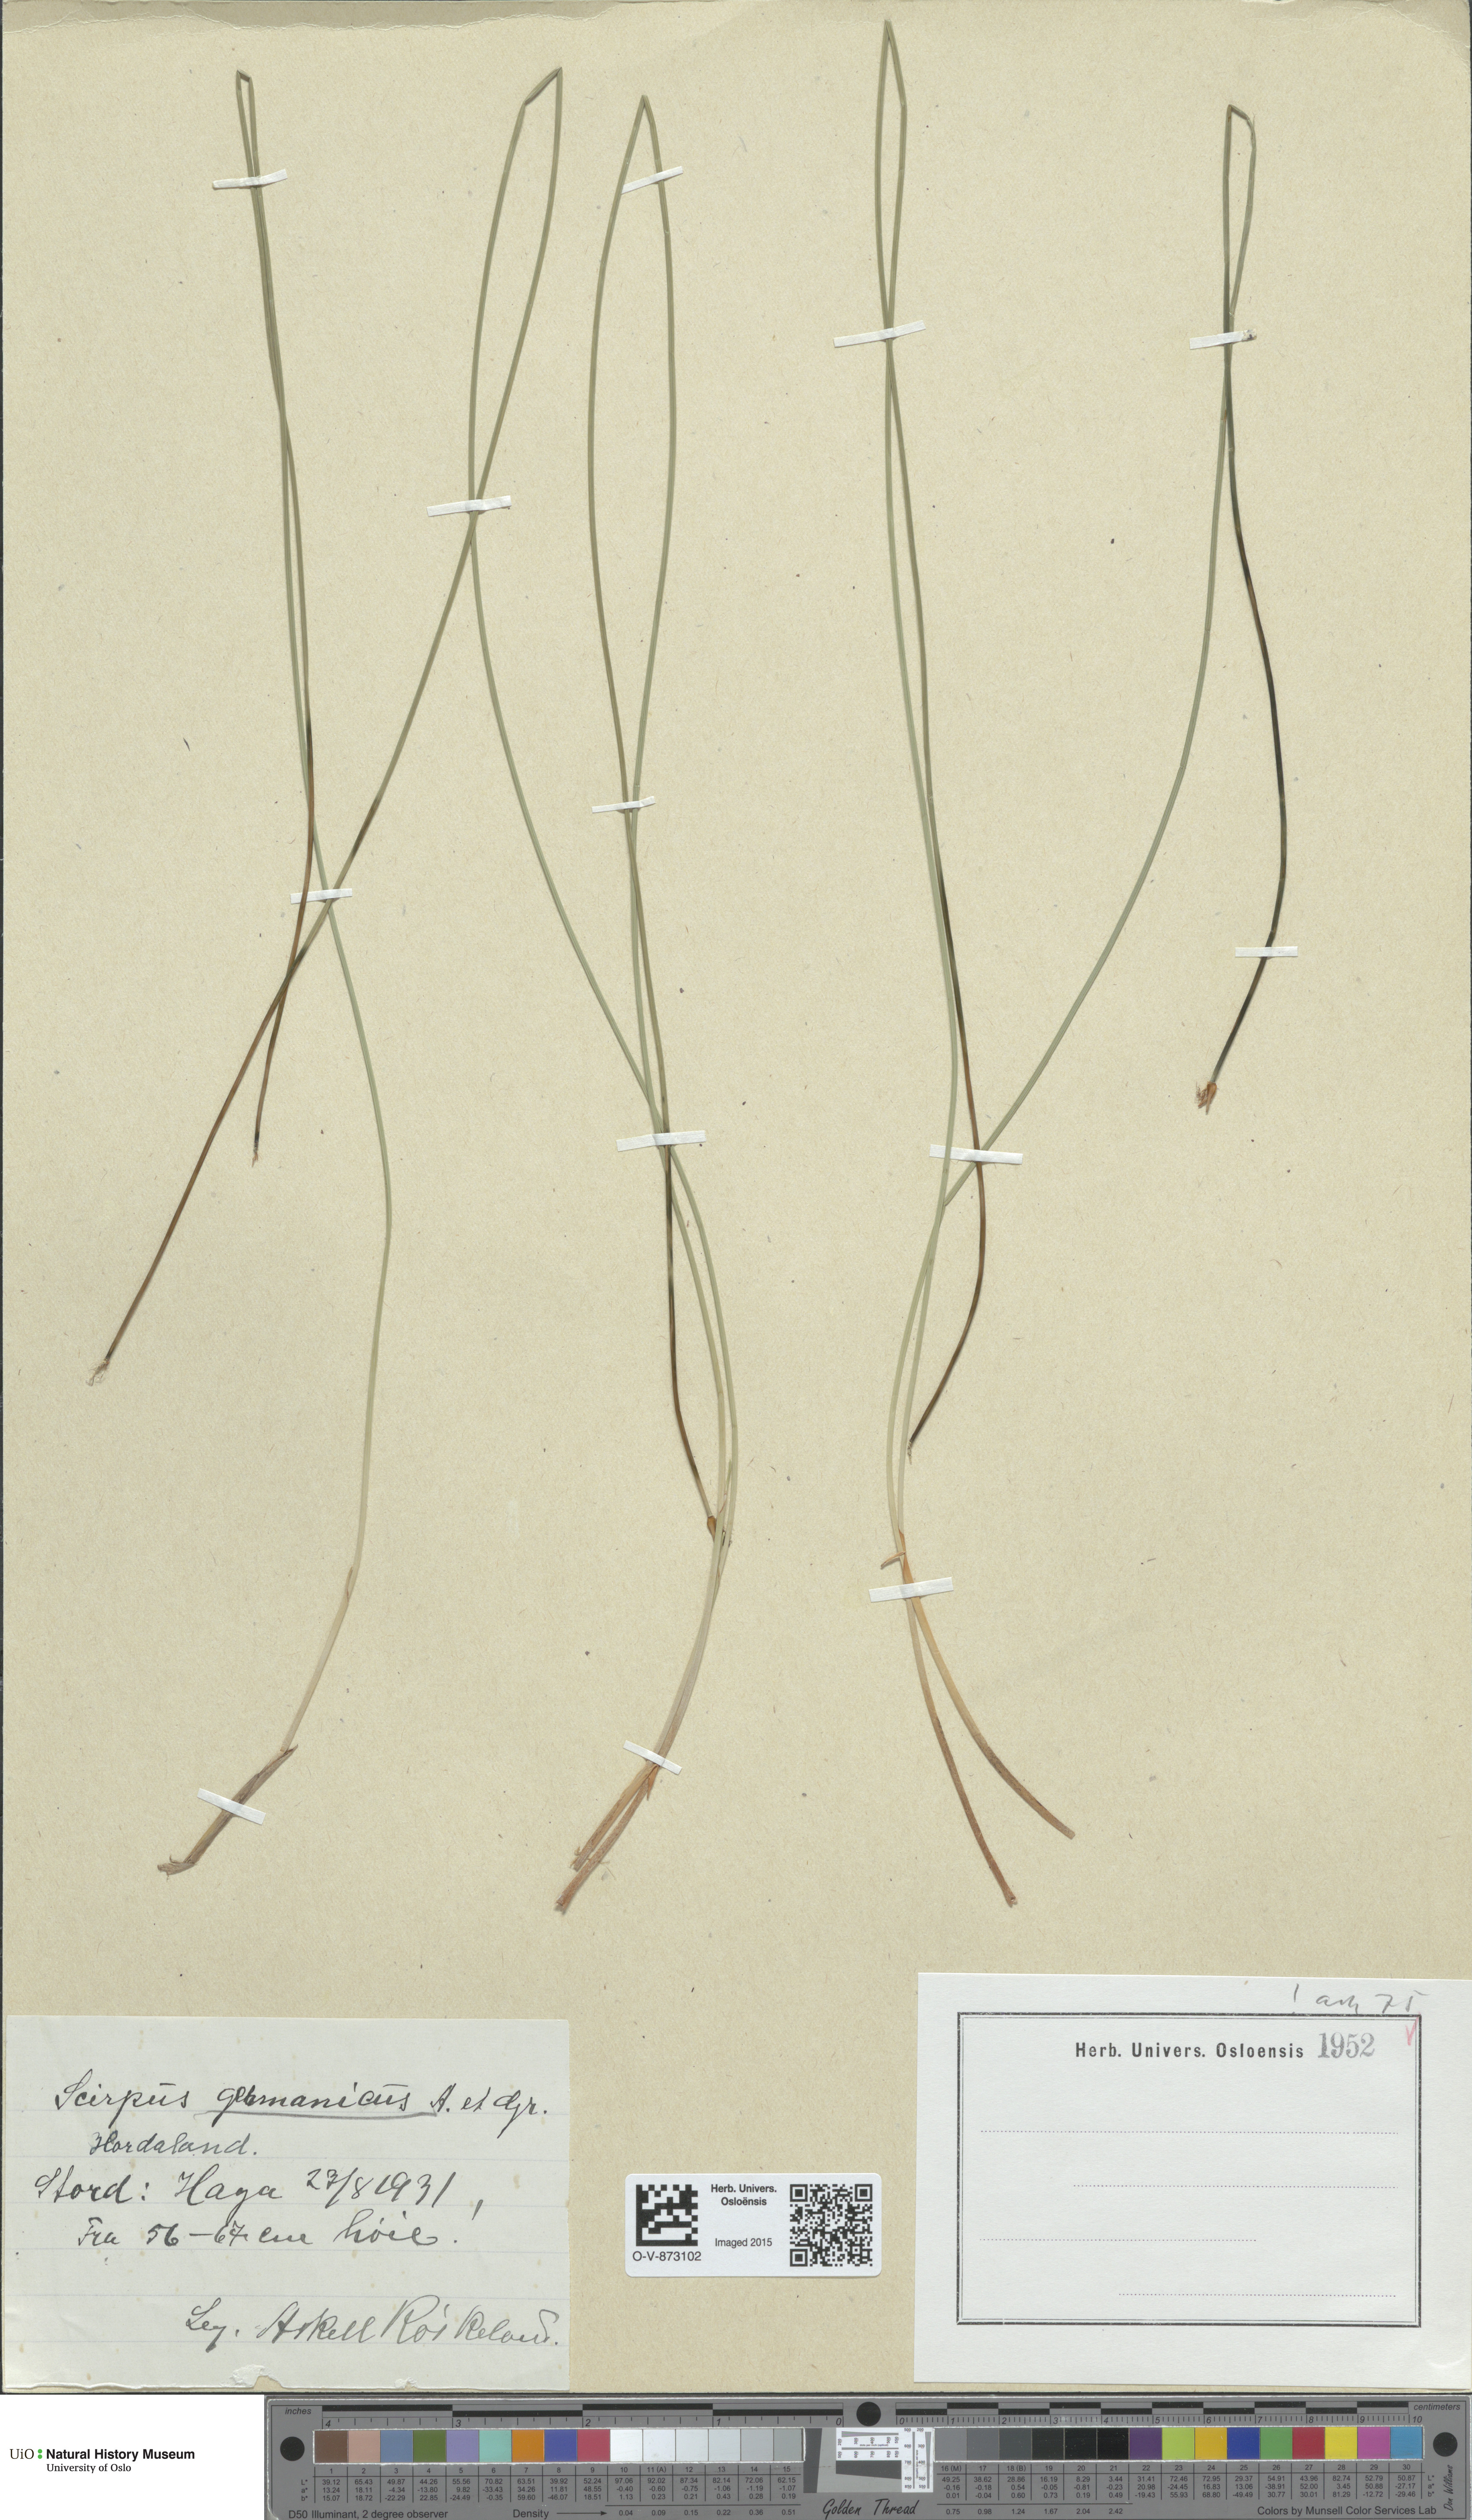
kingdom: Plantae
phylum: Tracheophyta
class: Liliopsida
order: Poales
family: Cyperaceae
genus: Trichophorum
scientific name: Trichophorum cespitosum
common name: Cespitose bulrush
